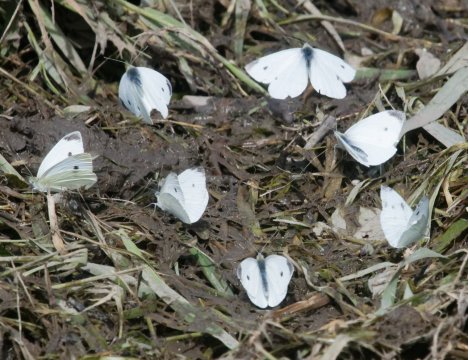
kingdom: Animalia
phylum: Arthropoda
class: Insecta
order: Lepidoptera
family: Pieridae
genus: Pieris
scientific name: Pieris rapae
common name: Cabbage White
